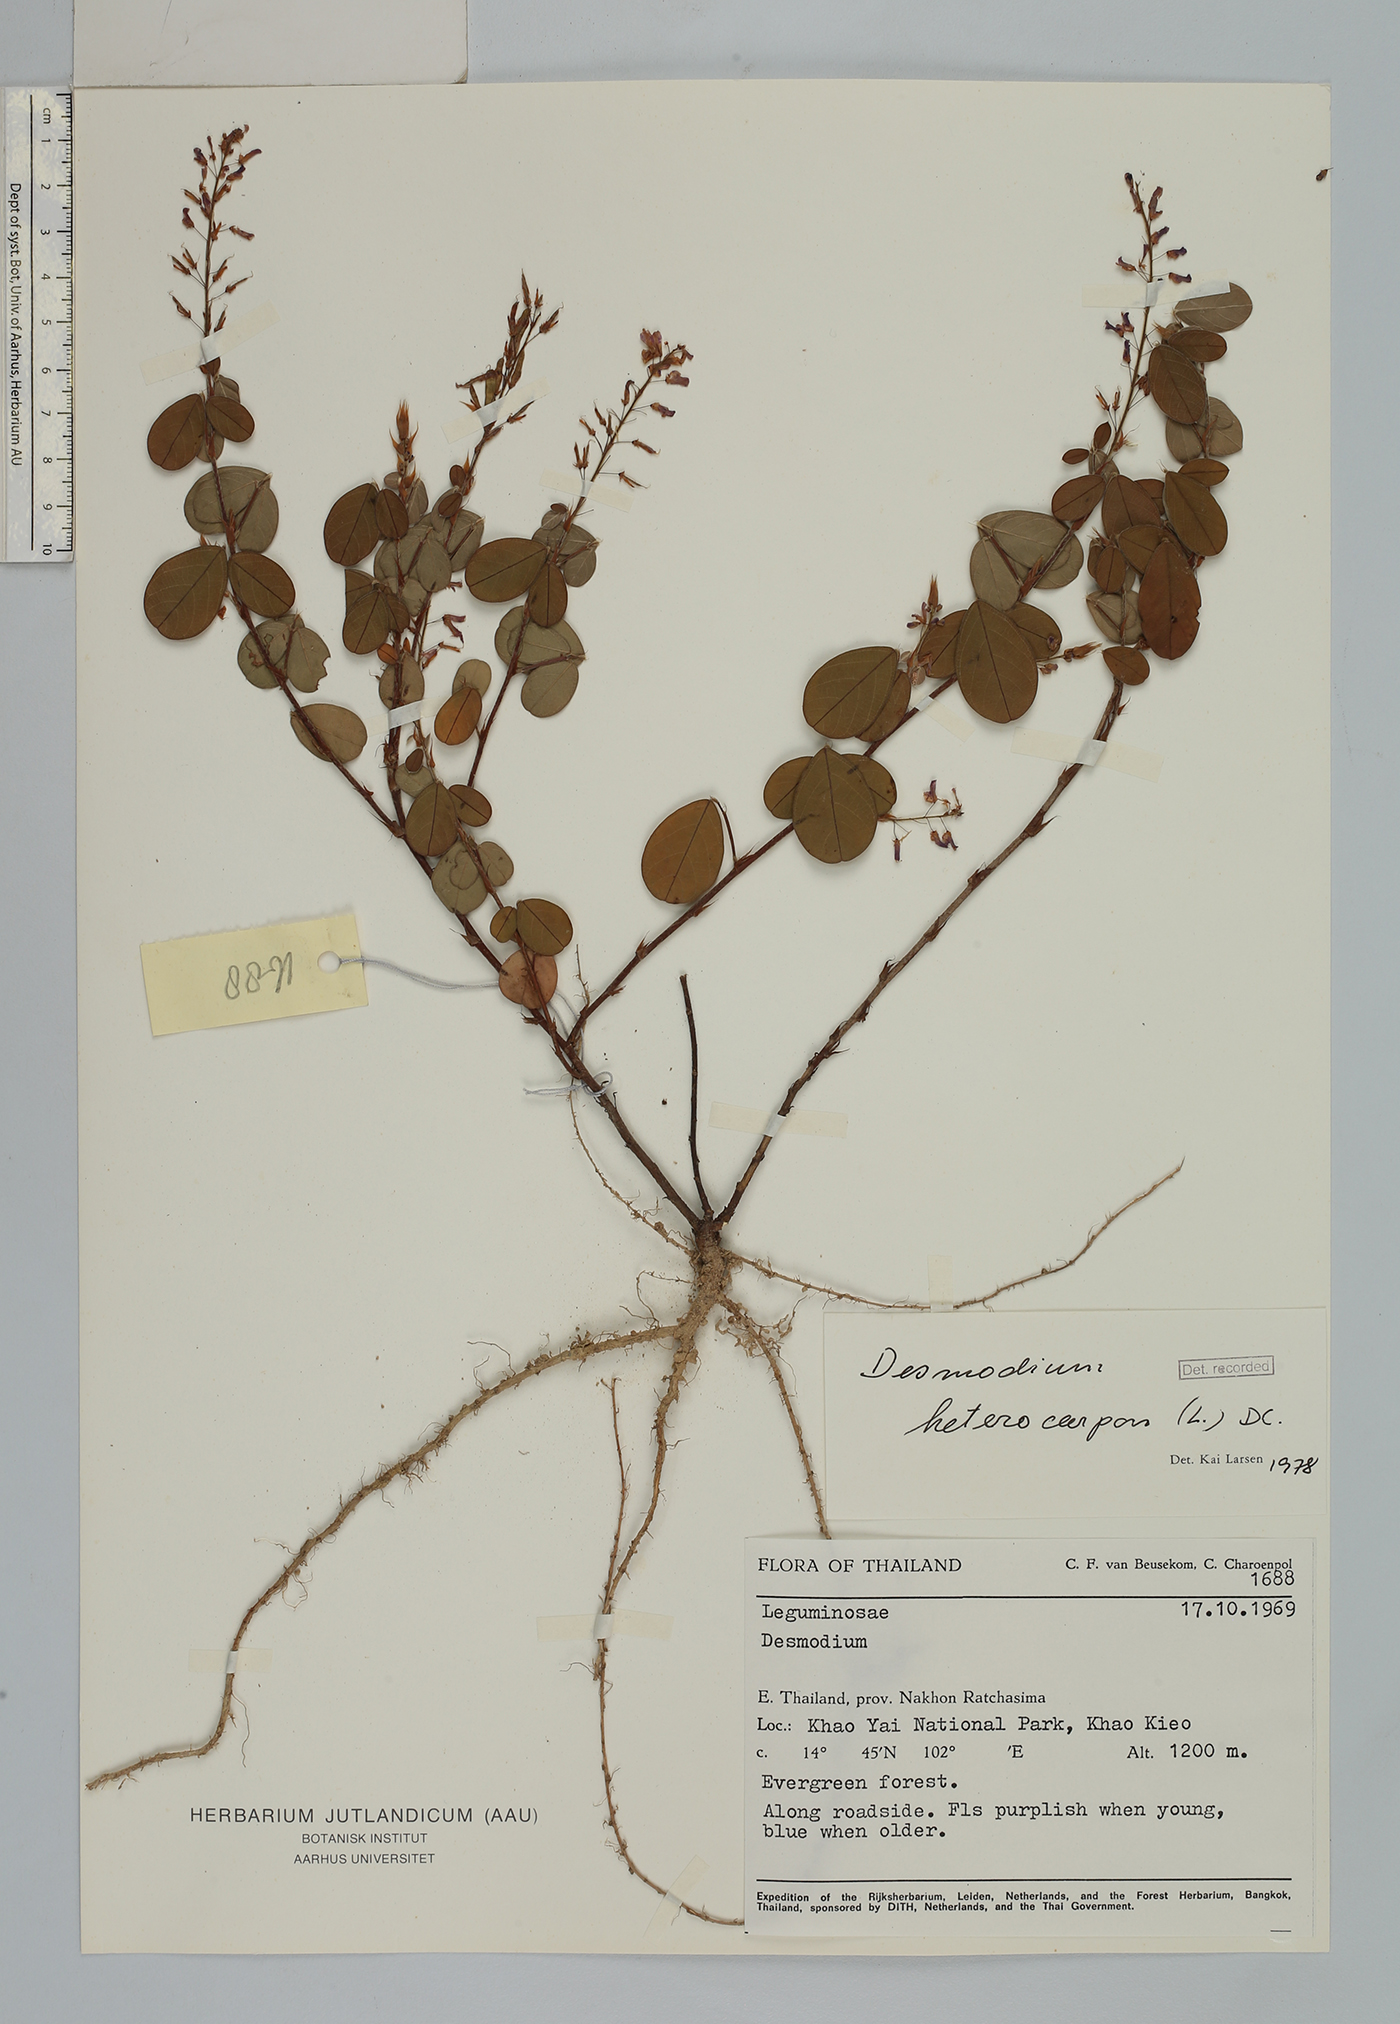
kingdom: Plantae
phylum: Tracheophyta
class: Magnoliopsida
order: Fabales
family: Fabaceae
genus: Grona
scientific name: Grona heterocarpos
